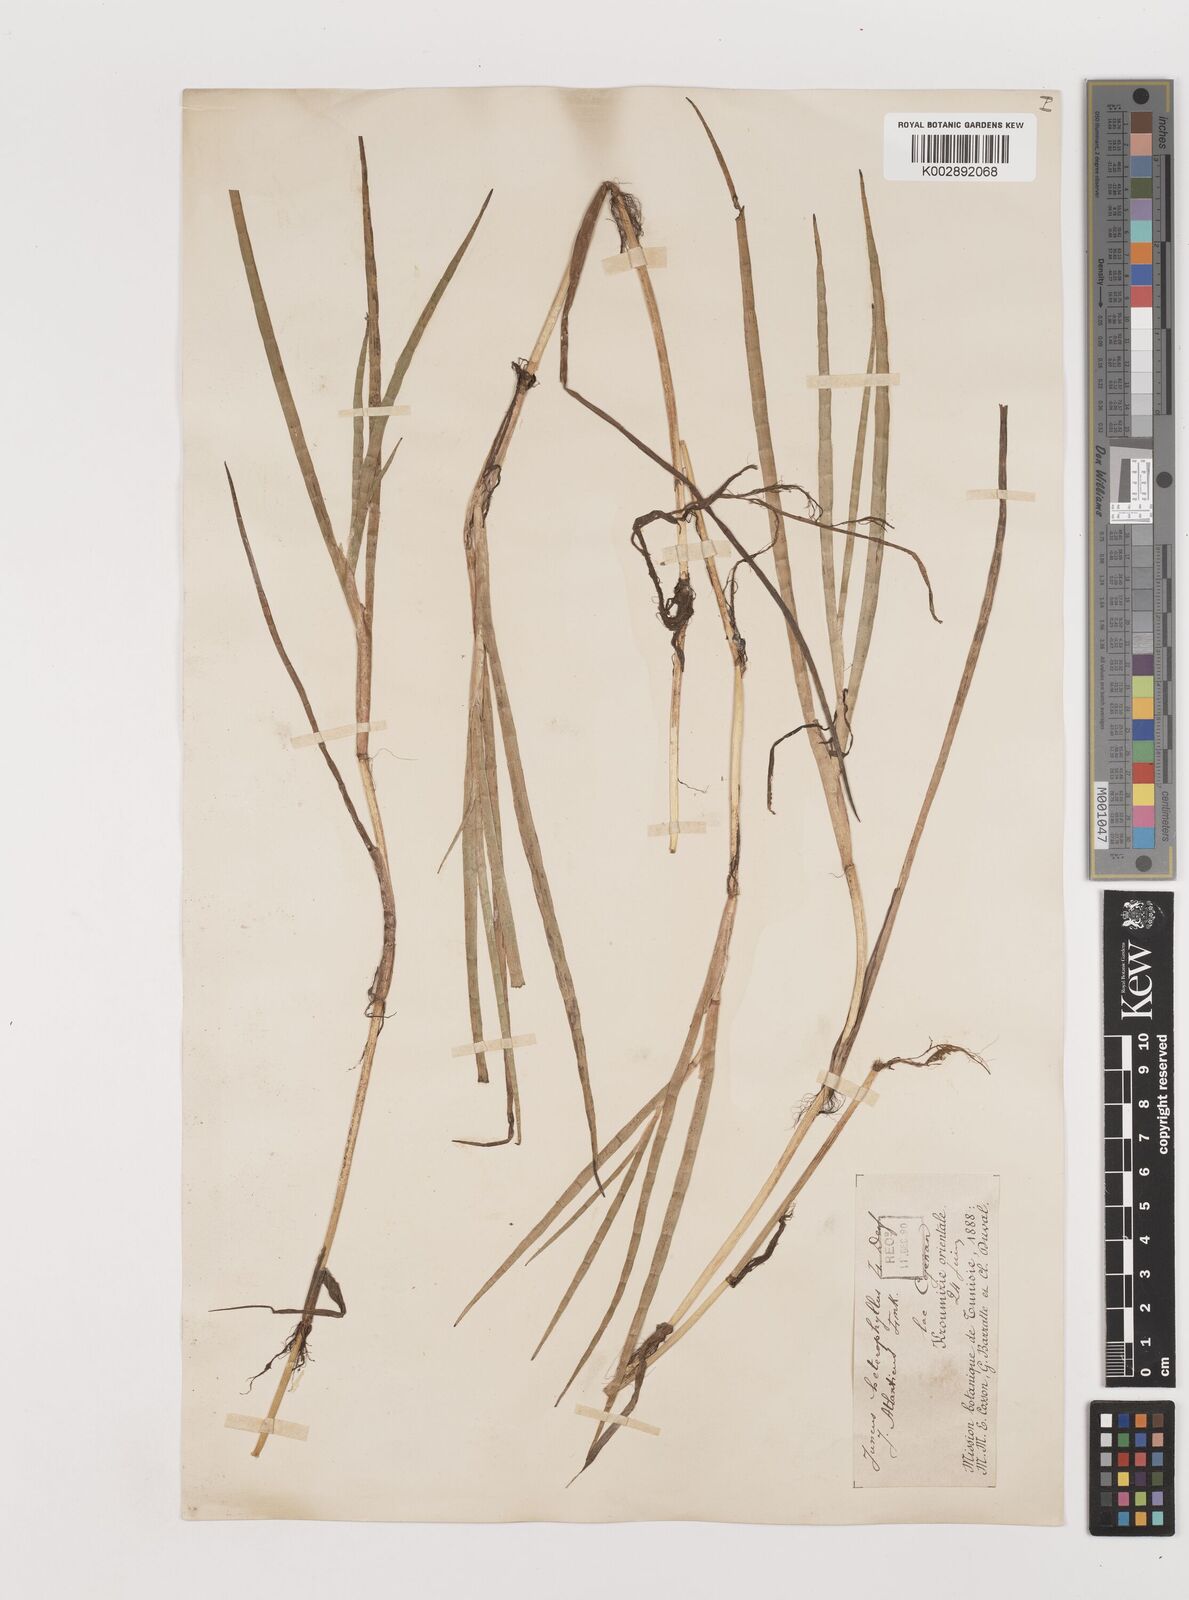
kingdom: Plantae
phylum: Tracheophyta
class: Liliopsida
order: Poales
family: Juncaceae
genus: Juncus
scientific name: Juncus heterophyllus
